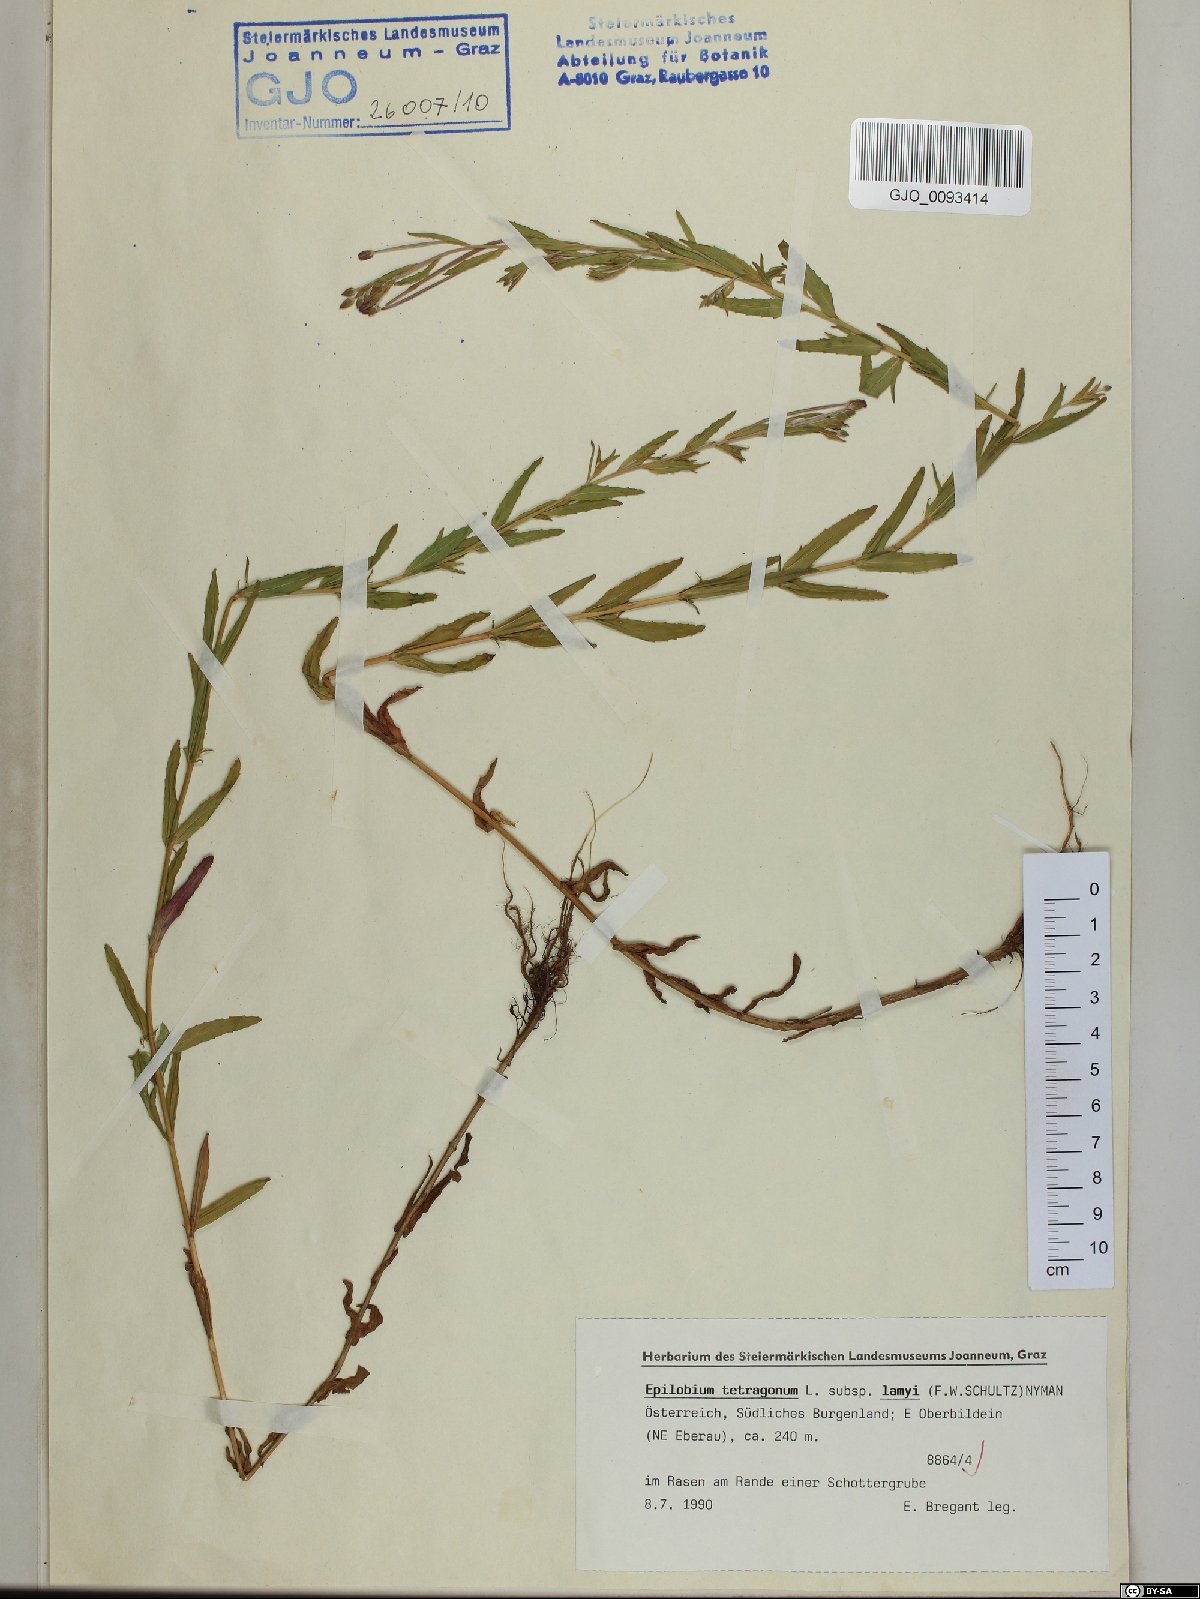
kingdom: Plantae
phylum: Tracheophyta
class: Magnoliopsida
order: Myrtales
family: Onagraceae
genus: Epilobium
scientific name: Epilobium lamyi
